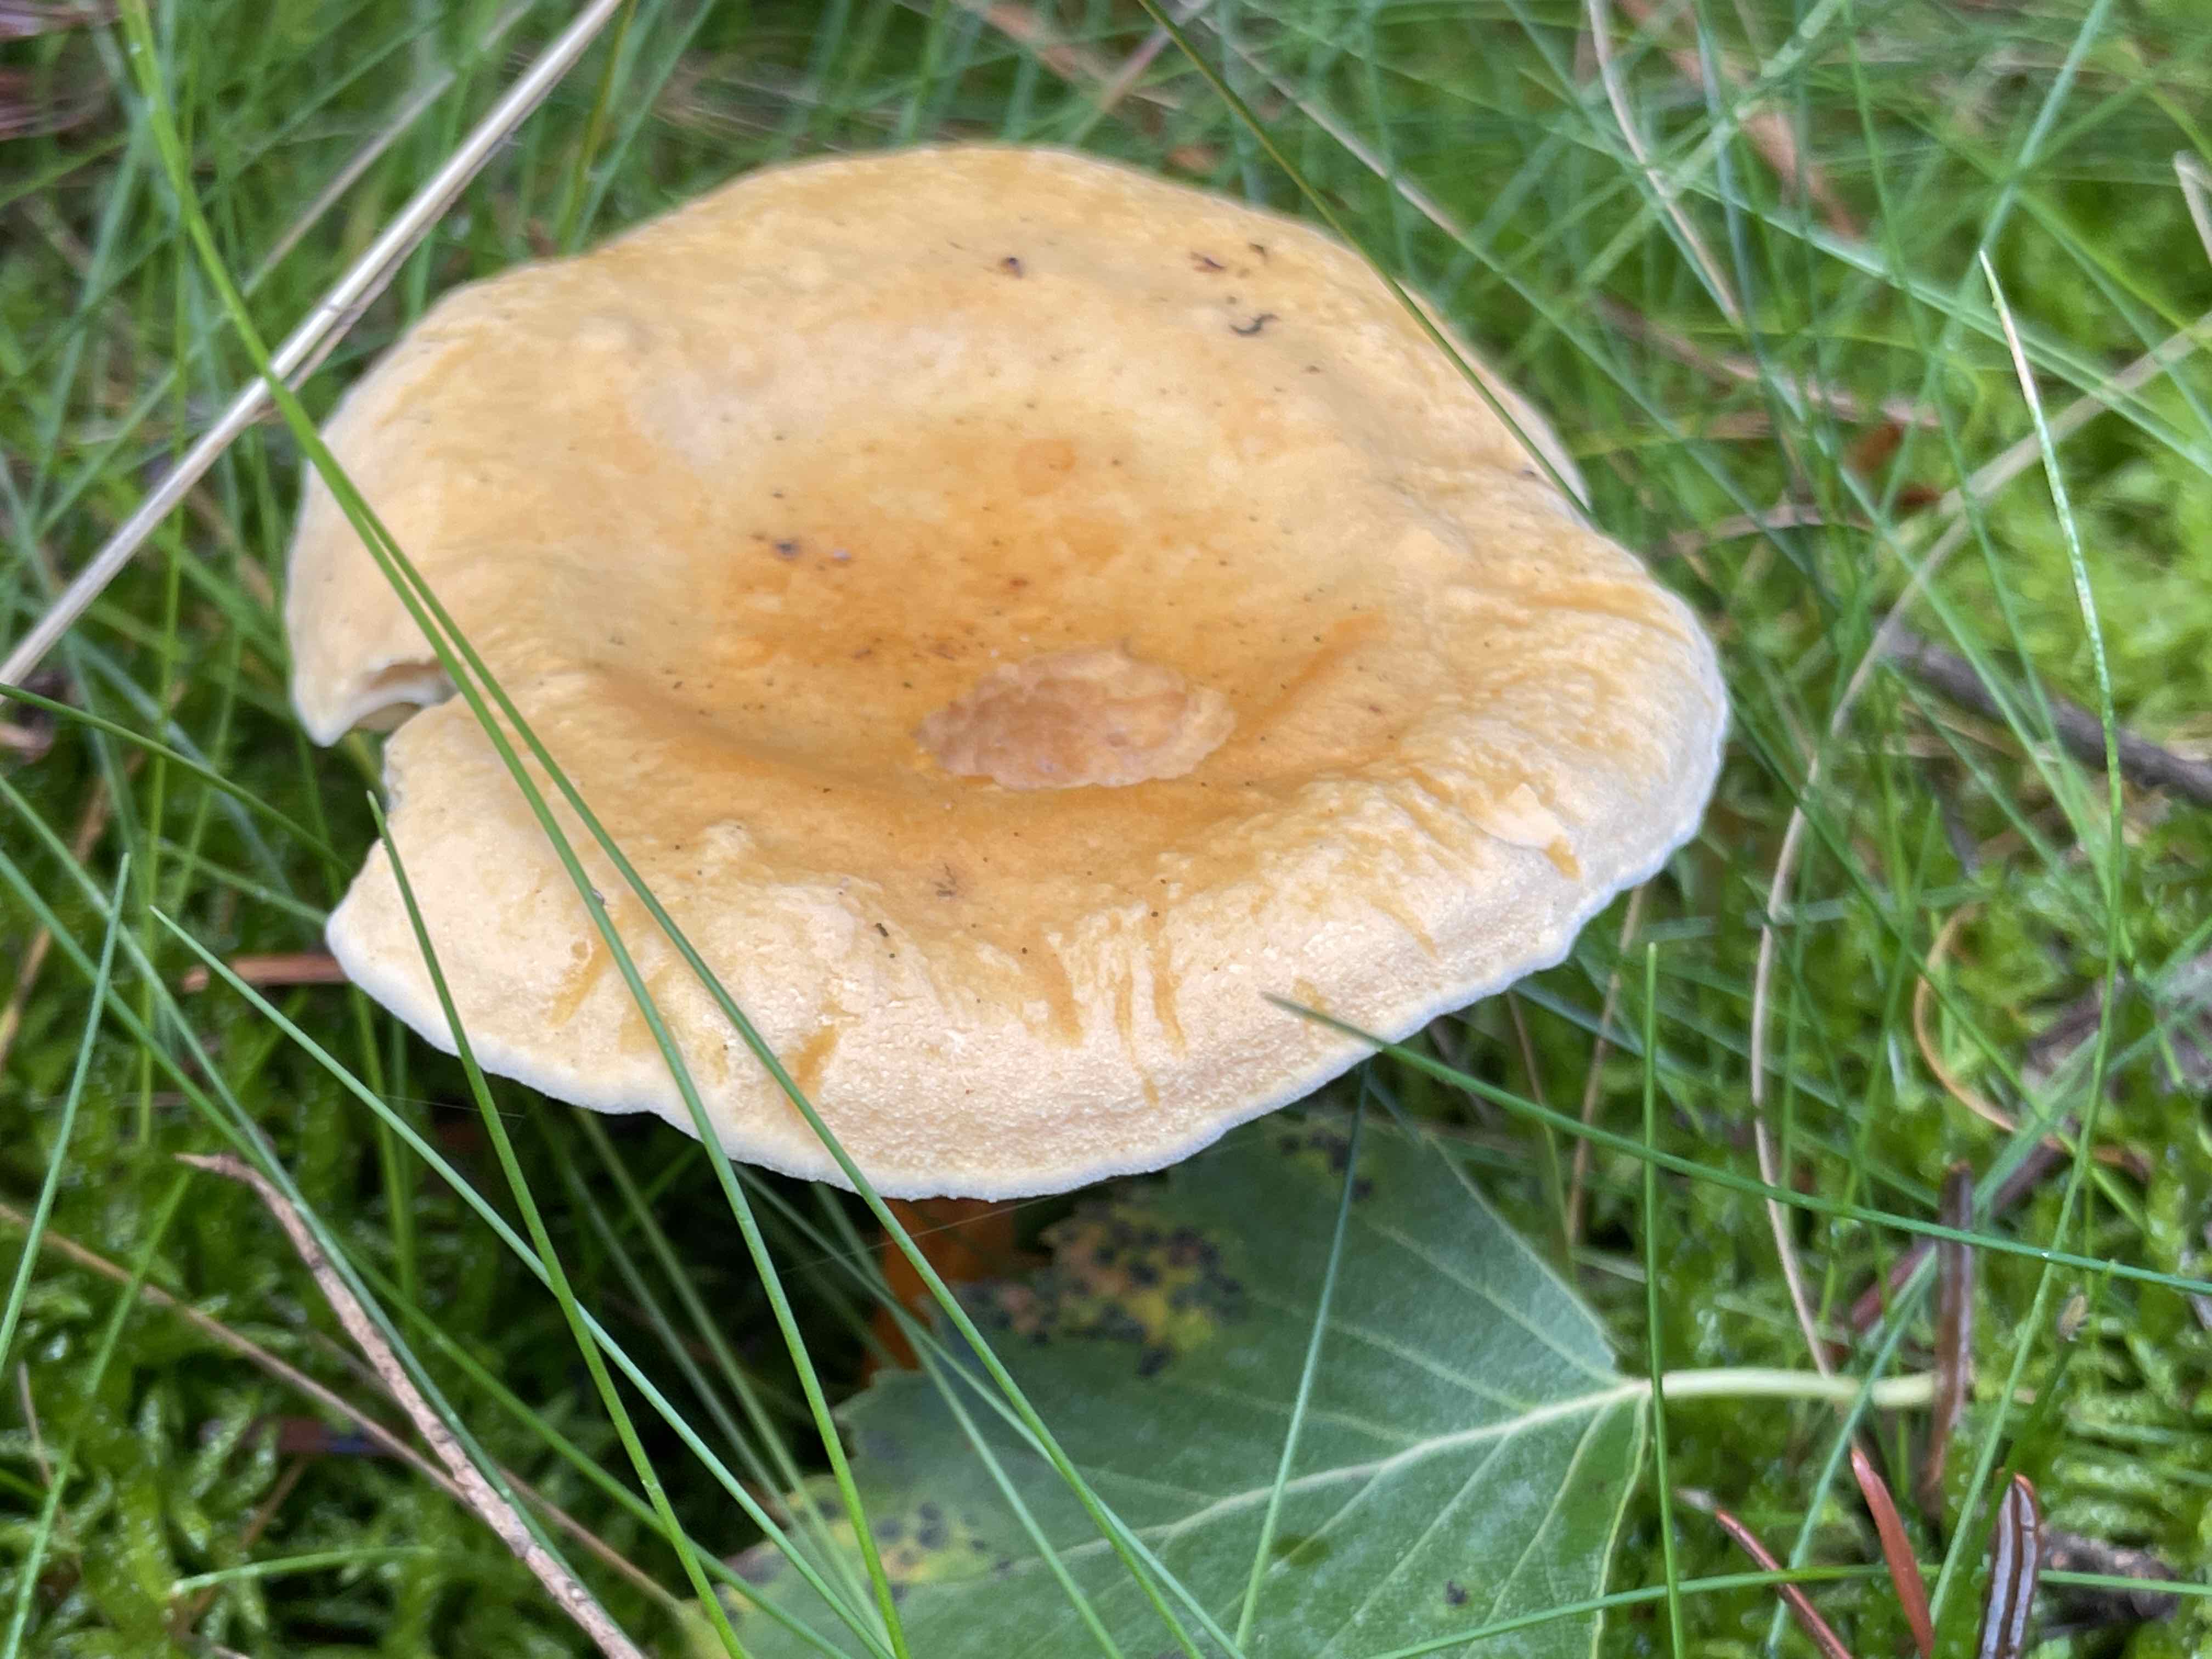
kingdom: Fungi
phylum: Basidiomycota
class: Agaricomycetes
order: Boletales
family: Hygrophoropsidaceae
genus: Hygrophoropsis
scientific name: Hygrophoropsis aurantiaca
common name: almindelig orangekantarel
